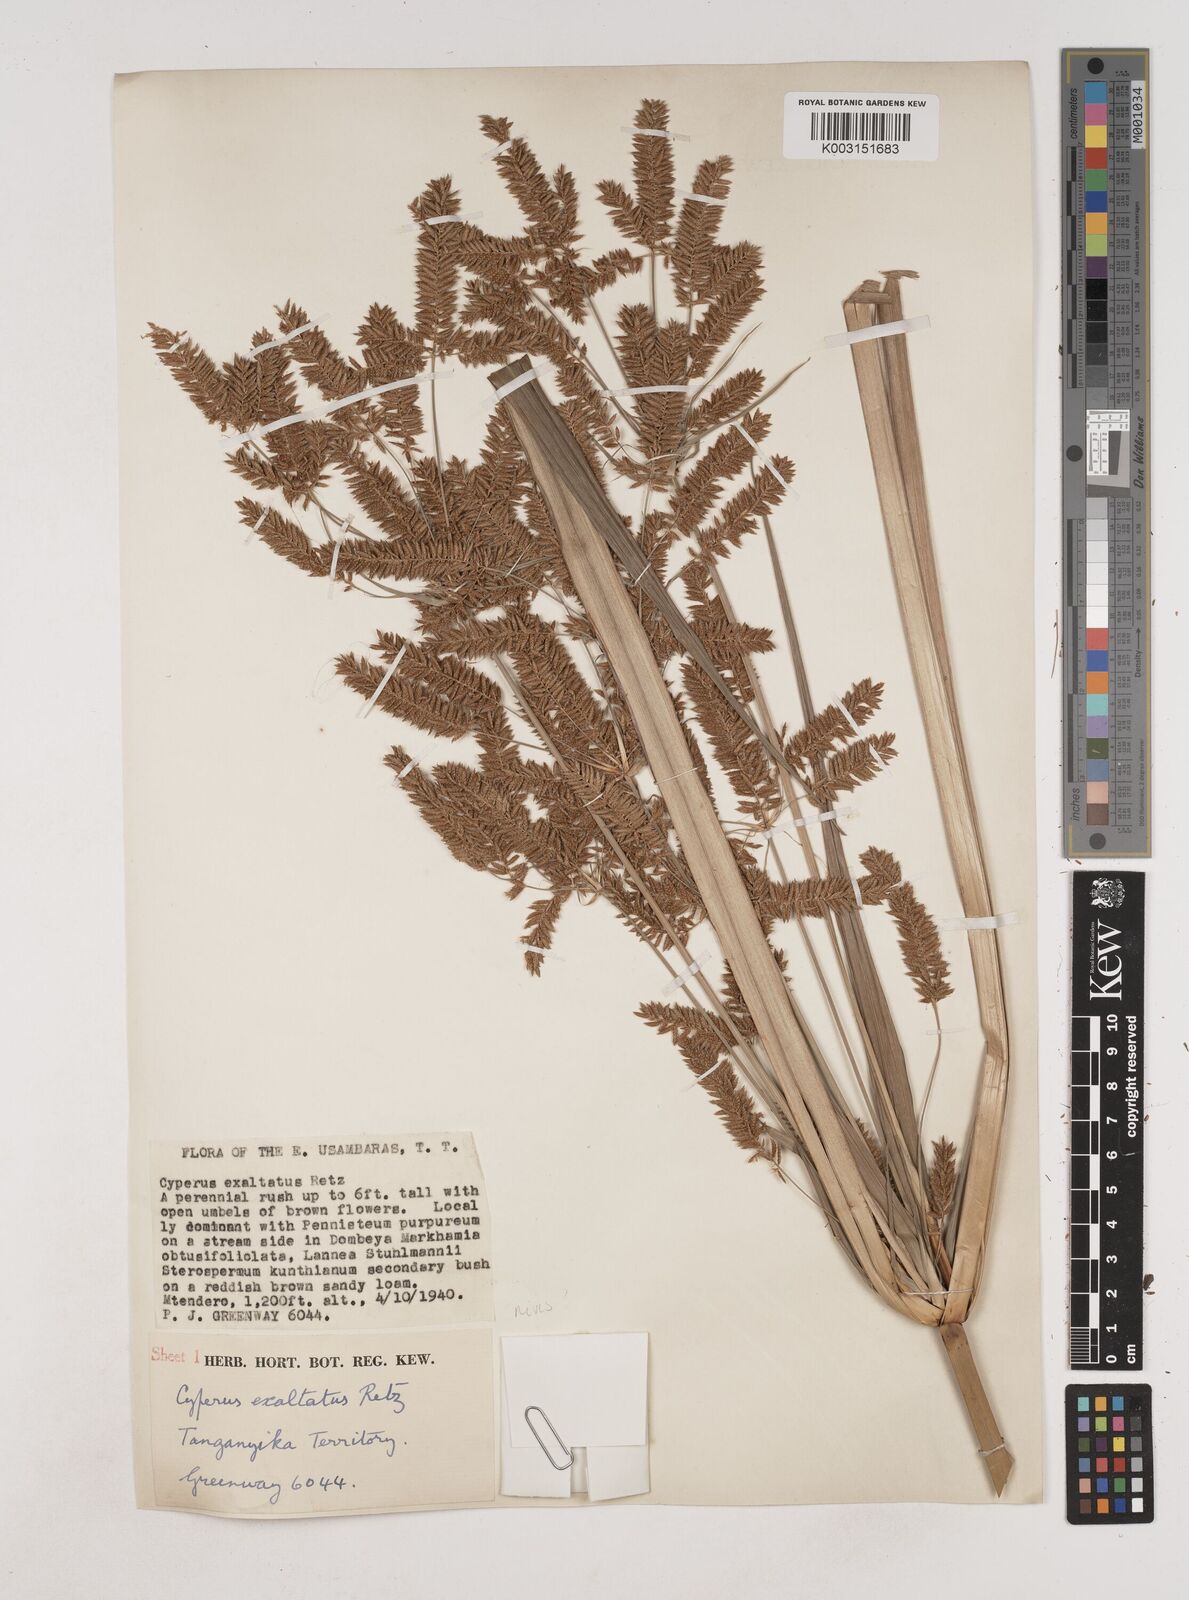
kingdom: Plantae
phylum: Tracheophyta
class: Liliopsida
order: Poales
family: Cyperaceae
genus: Cyperus
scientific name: Cyperus exaltatus
